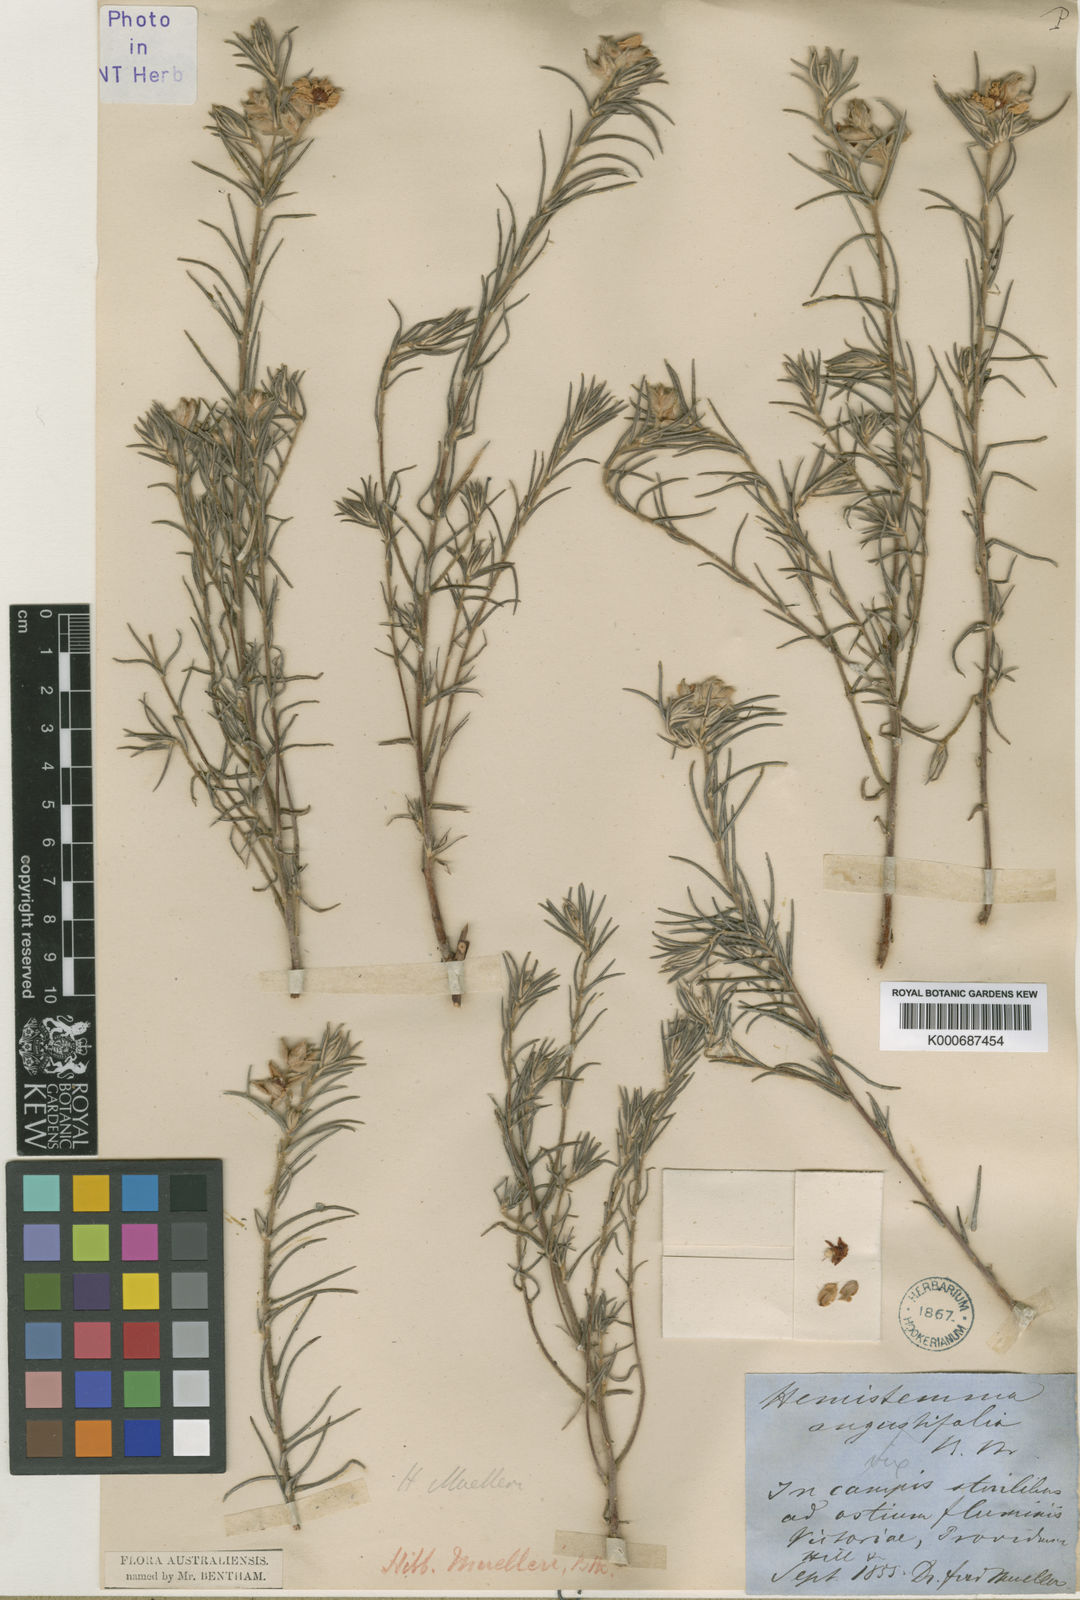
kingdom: Plantae
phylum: Tracheophyta
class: Magnoliopsida
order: Dilleniales
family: Dilleniaceae
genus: Hibbertia
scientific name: Hibbertia muelleri
